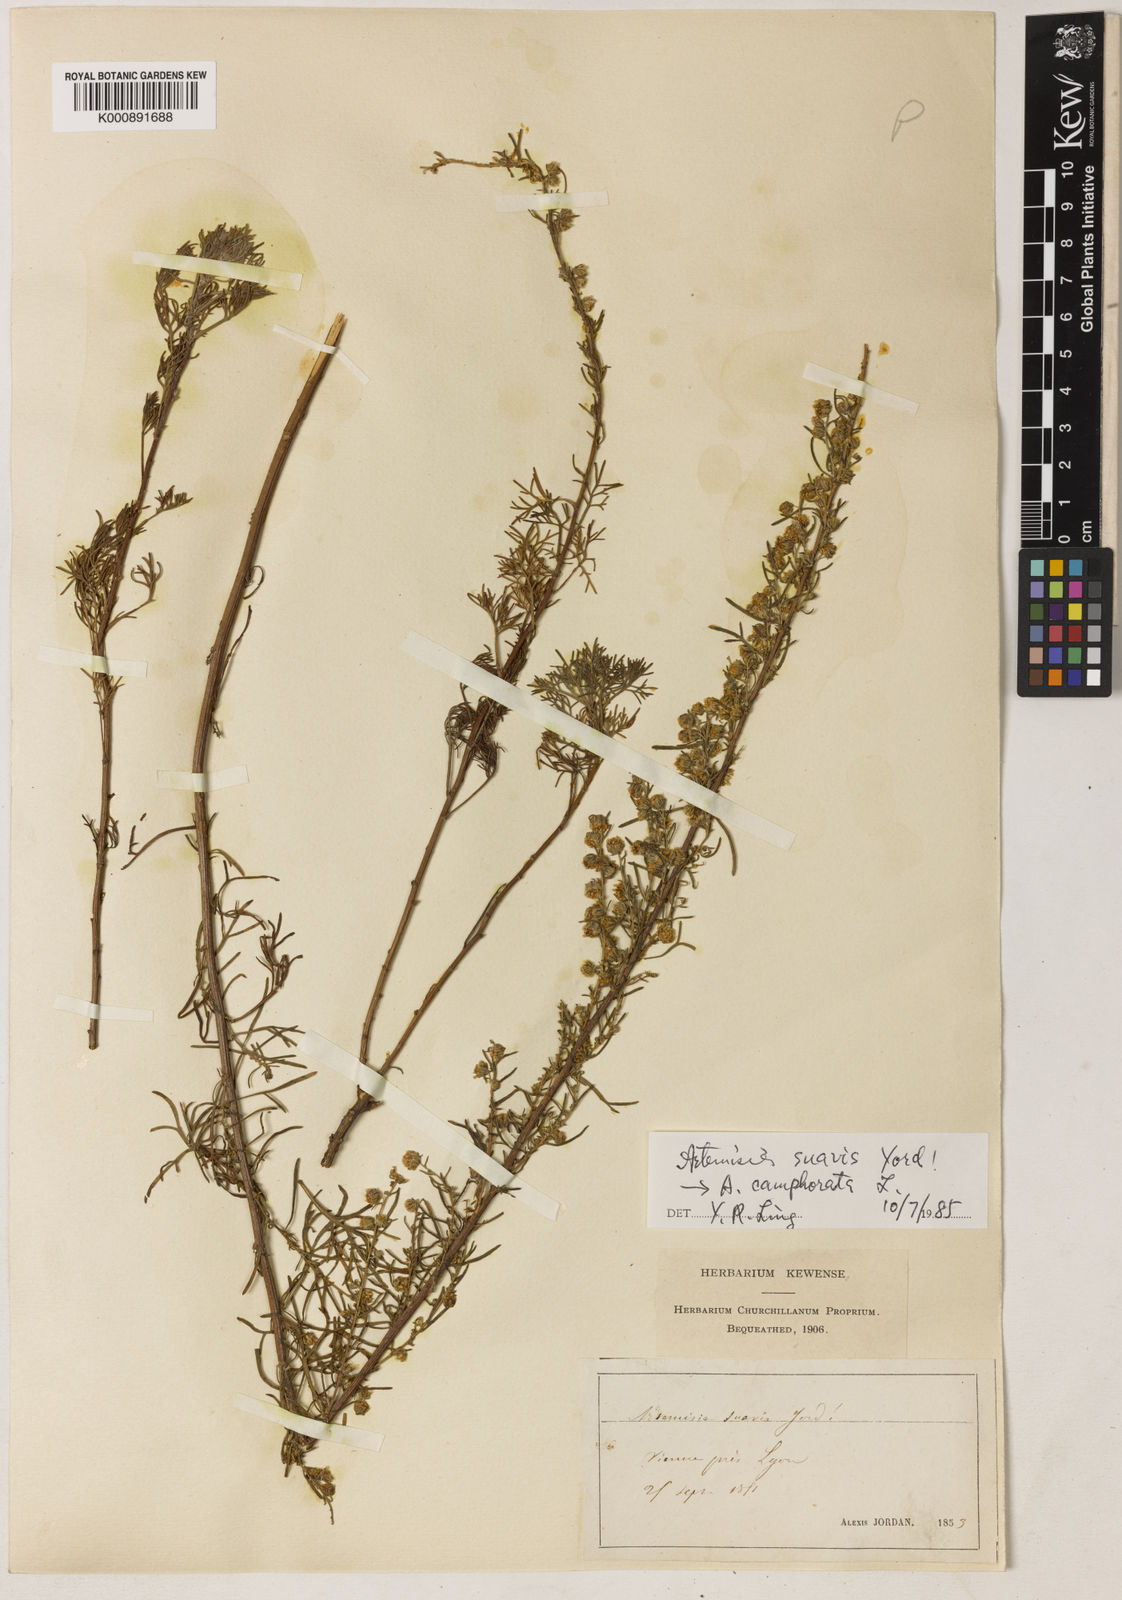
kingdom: Plantae
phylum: Tracheophyta
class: Magnoliopsida
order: Asterales
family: Asteraceae
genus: Artemisia
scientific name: Artemisia alba
